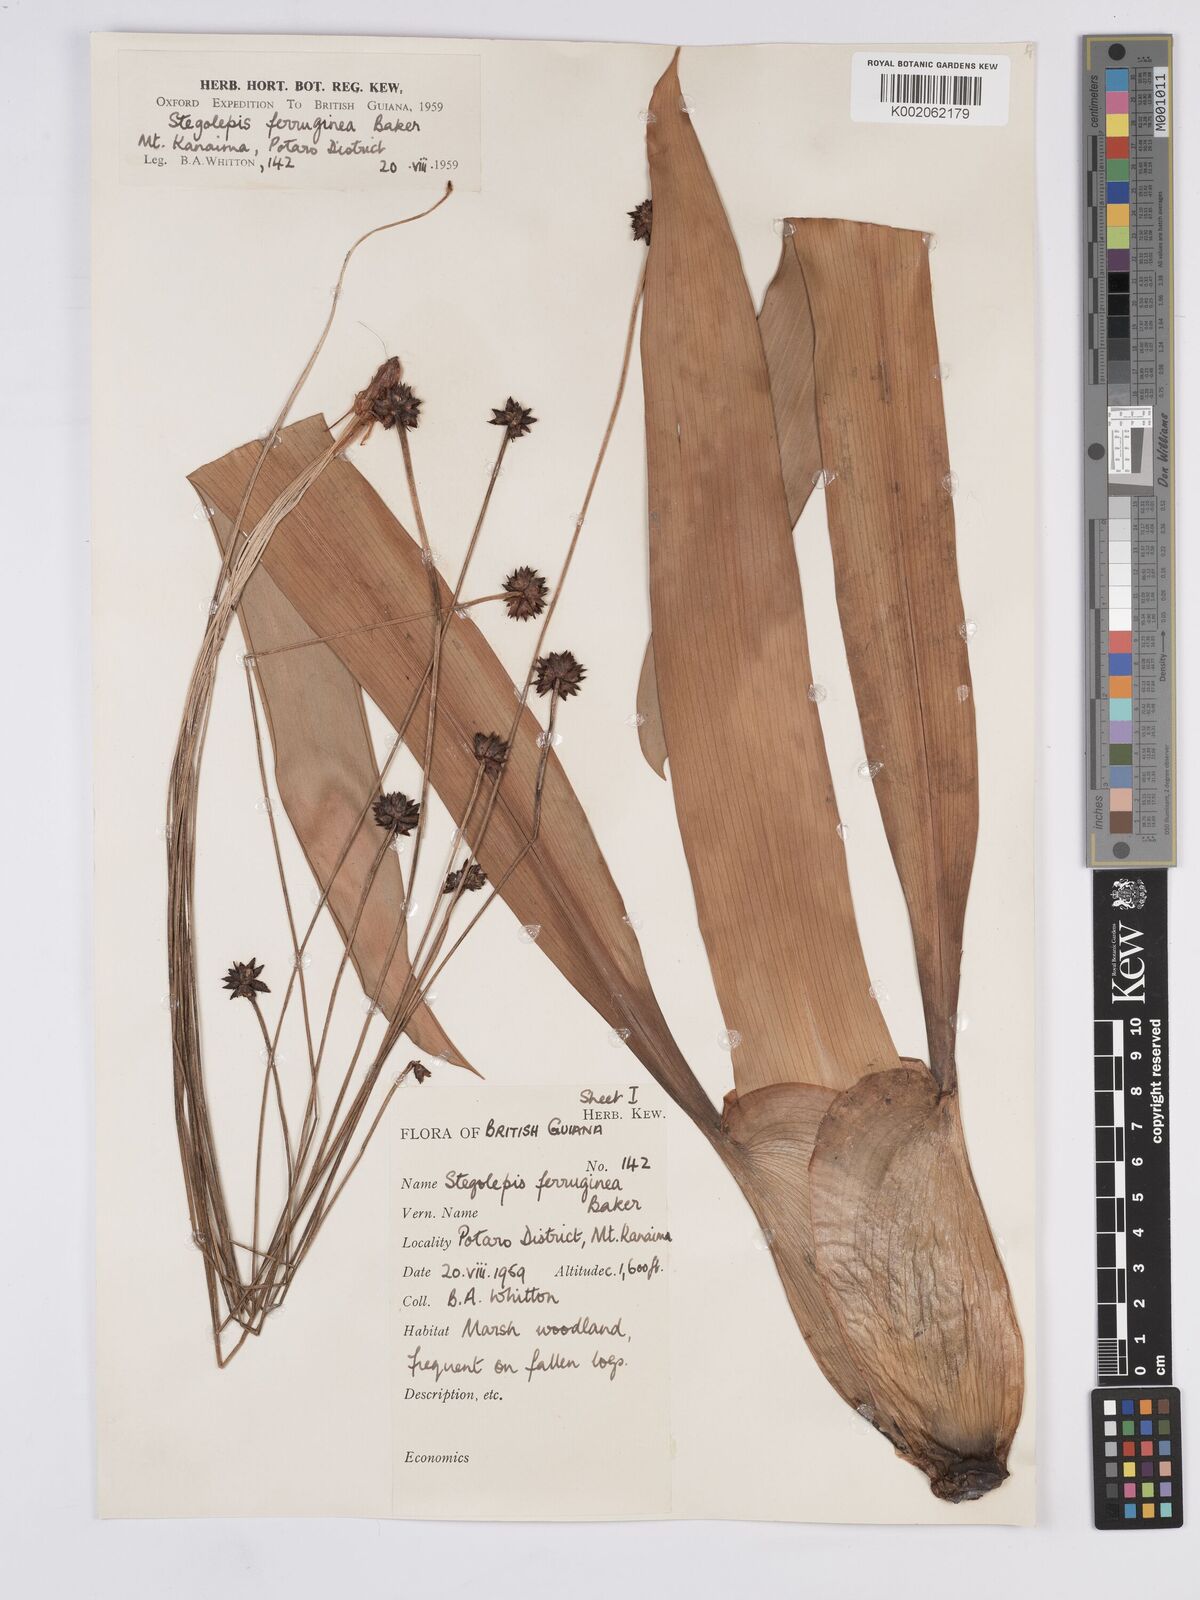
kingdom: Plantae
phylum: Tracheophyta
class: Liliopsida
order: Poales
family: Rapateaceae
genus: Stegolepis
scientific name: Stegolepis ferruginea
